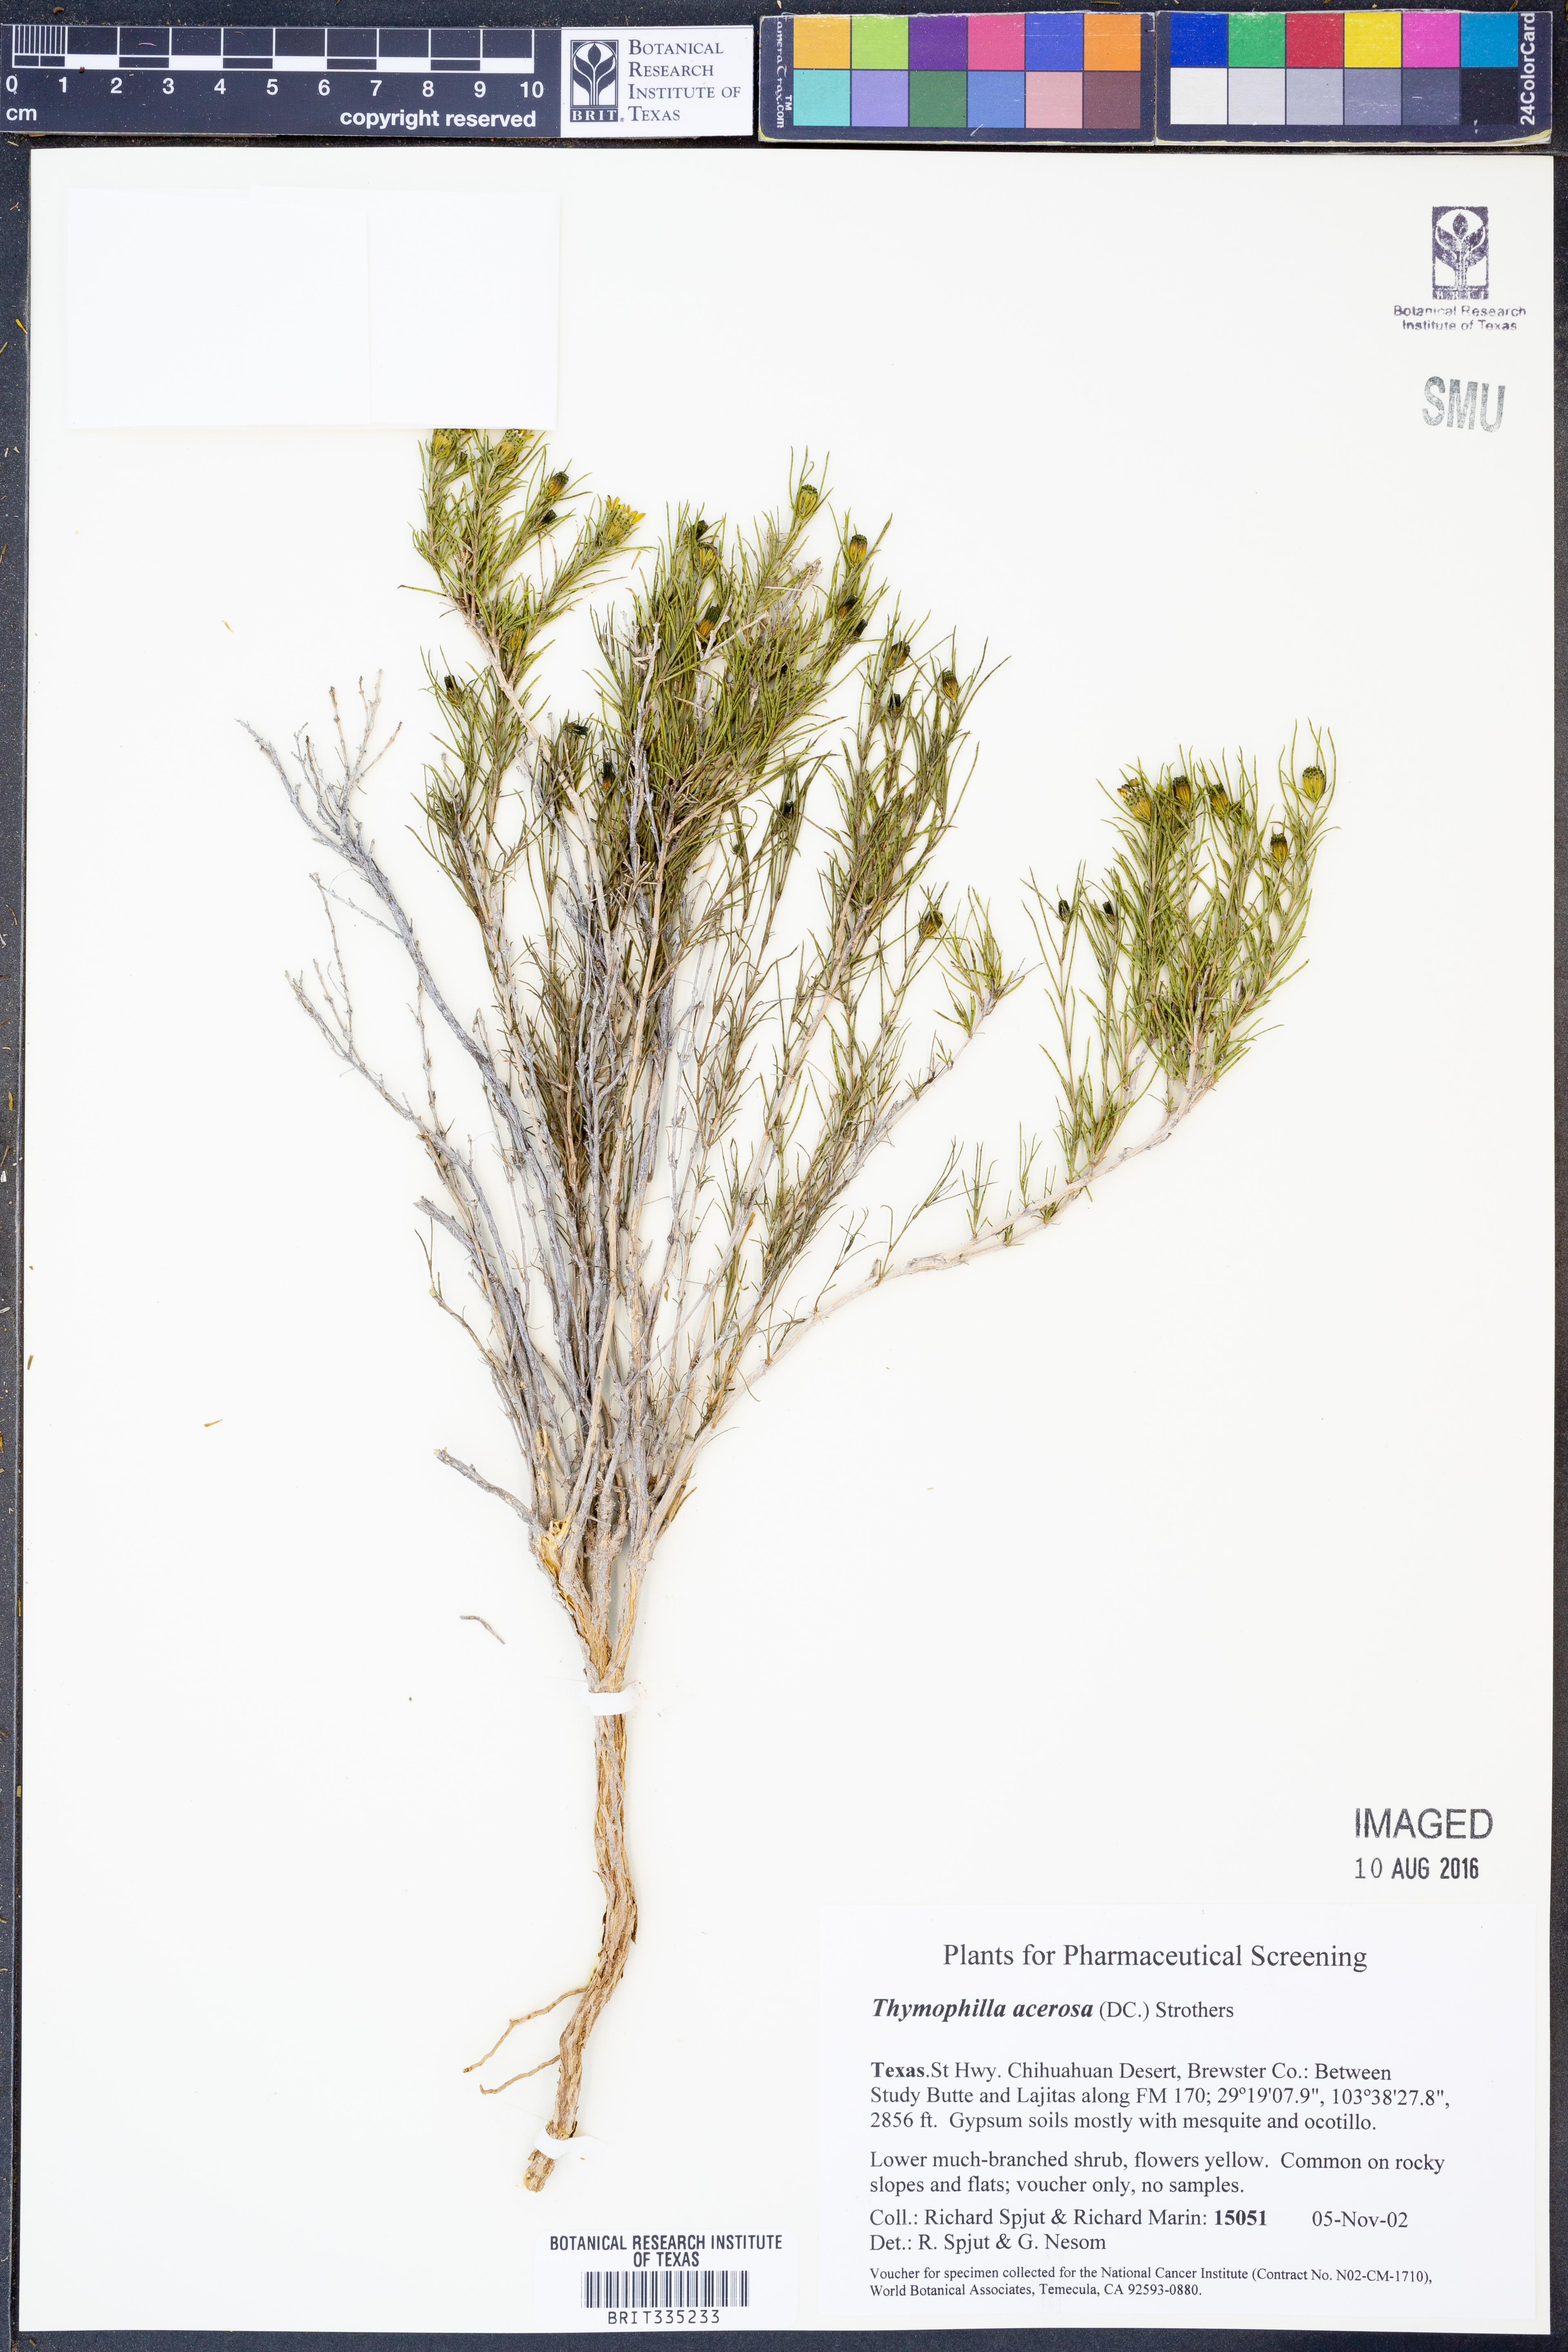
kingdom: Plantae
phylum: Tracheophyta
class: Magnoliopsida
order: Asterales
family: Asteraceae
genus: Thymophylla
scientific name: Thymophylla acerosa
